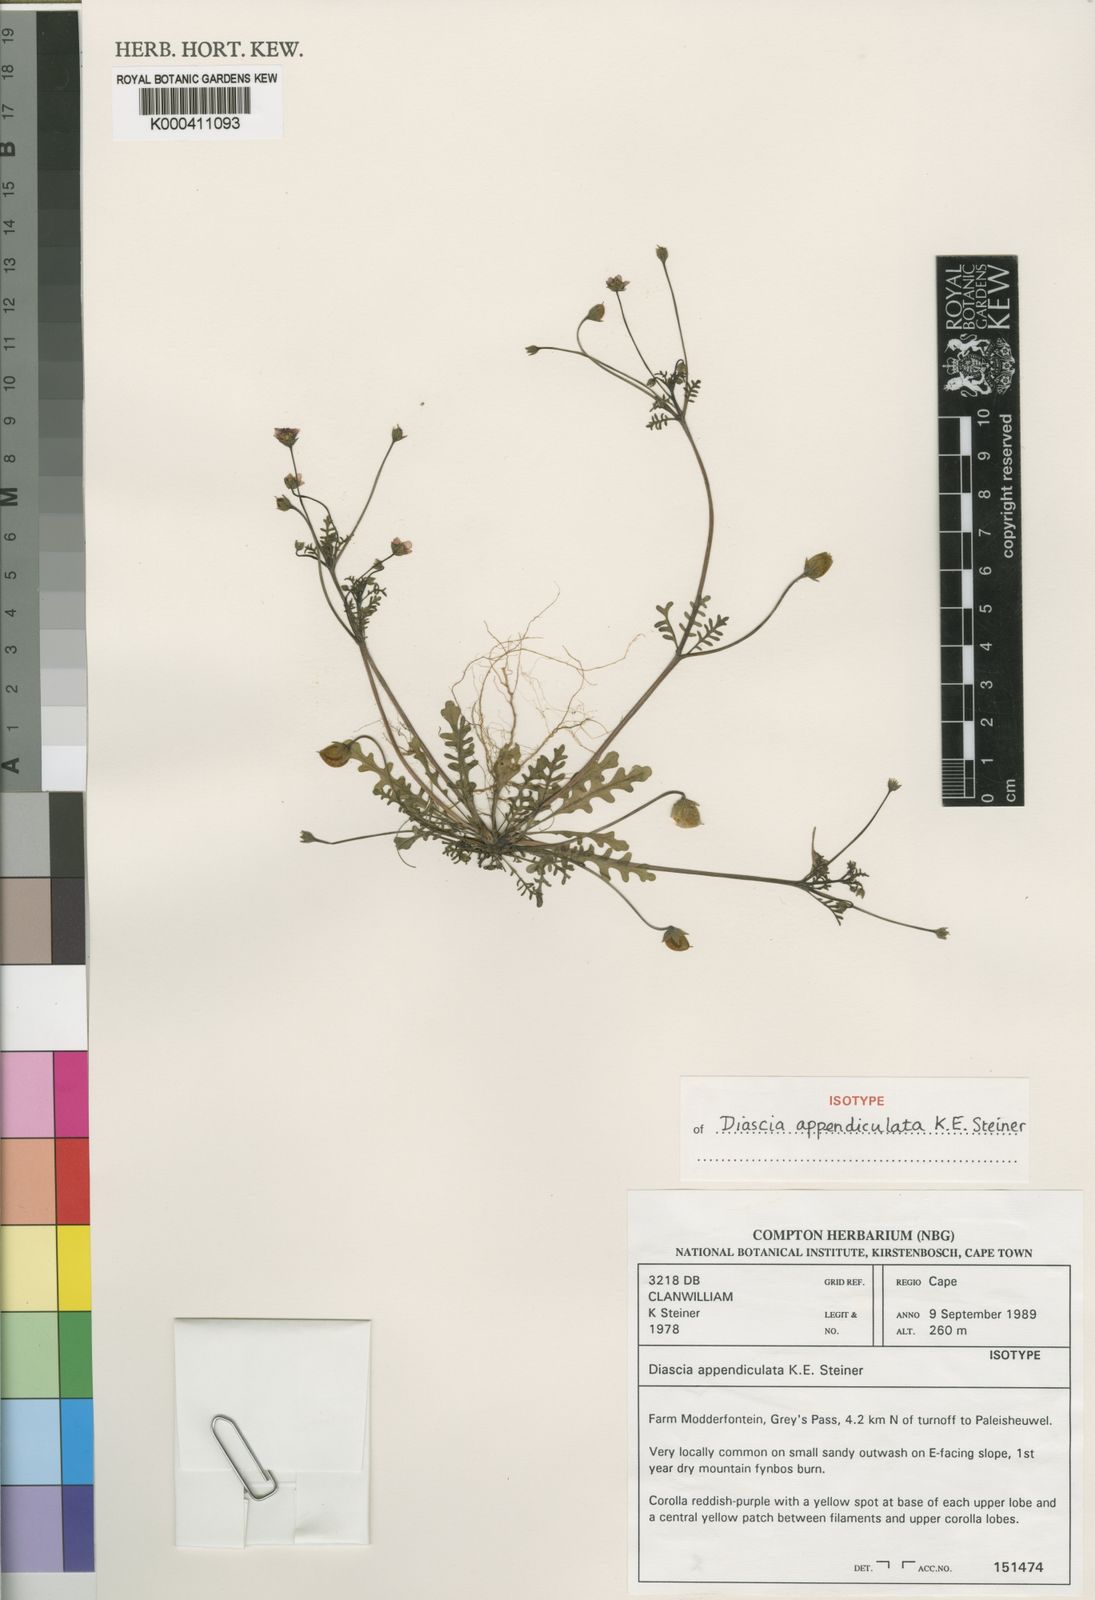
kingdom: Plantae
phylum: Tracheophyta
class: Magnoliopsida
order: Lamiales
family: Scrophulariaceae
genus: Diascia
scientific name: Diascia
